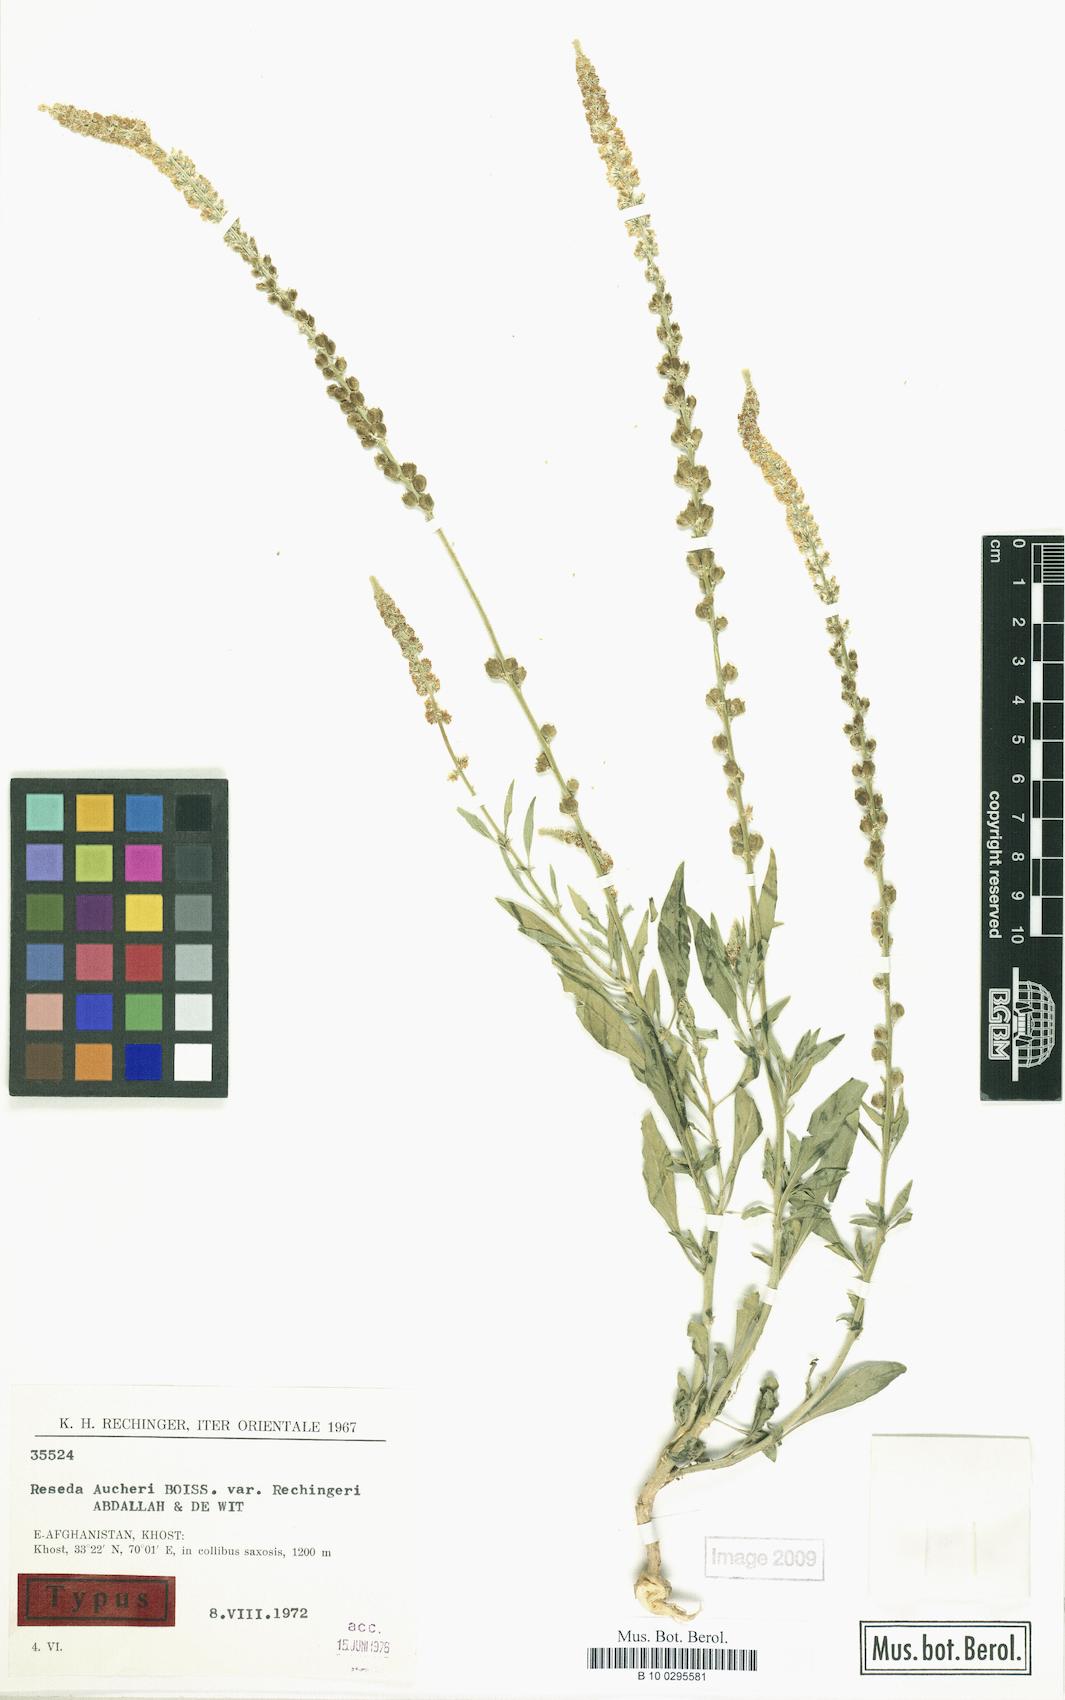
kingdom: Plantae
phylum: Tracheophyta
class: Magnoliopsida
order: Brassicales
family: Resedaceae
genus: Reseda
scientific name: Reseda aucheri
